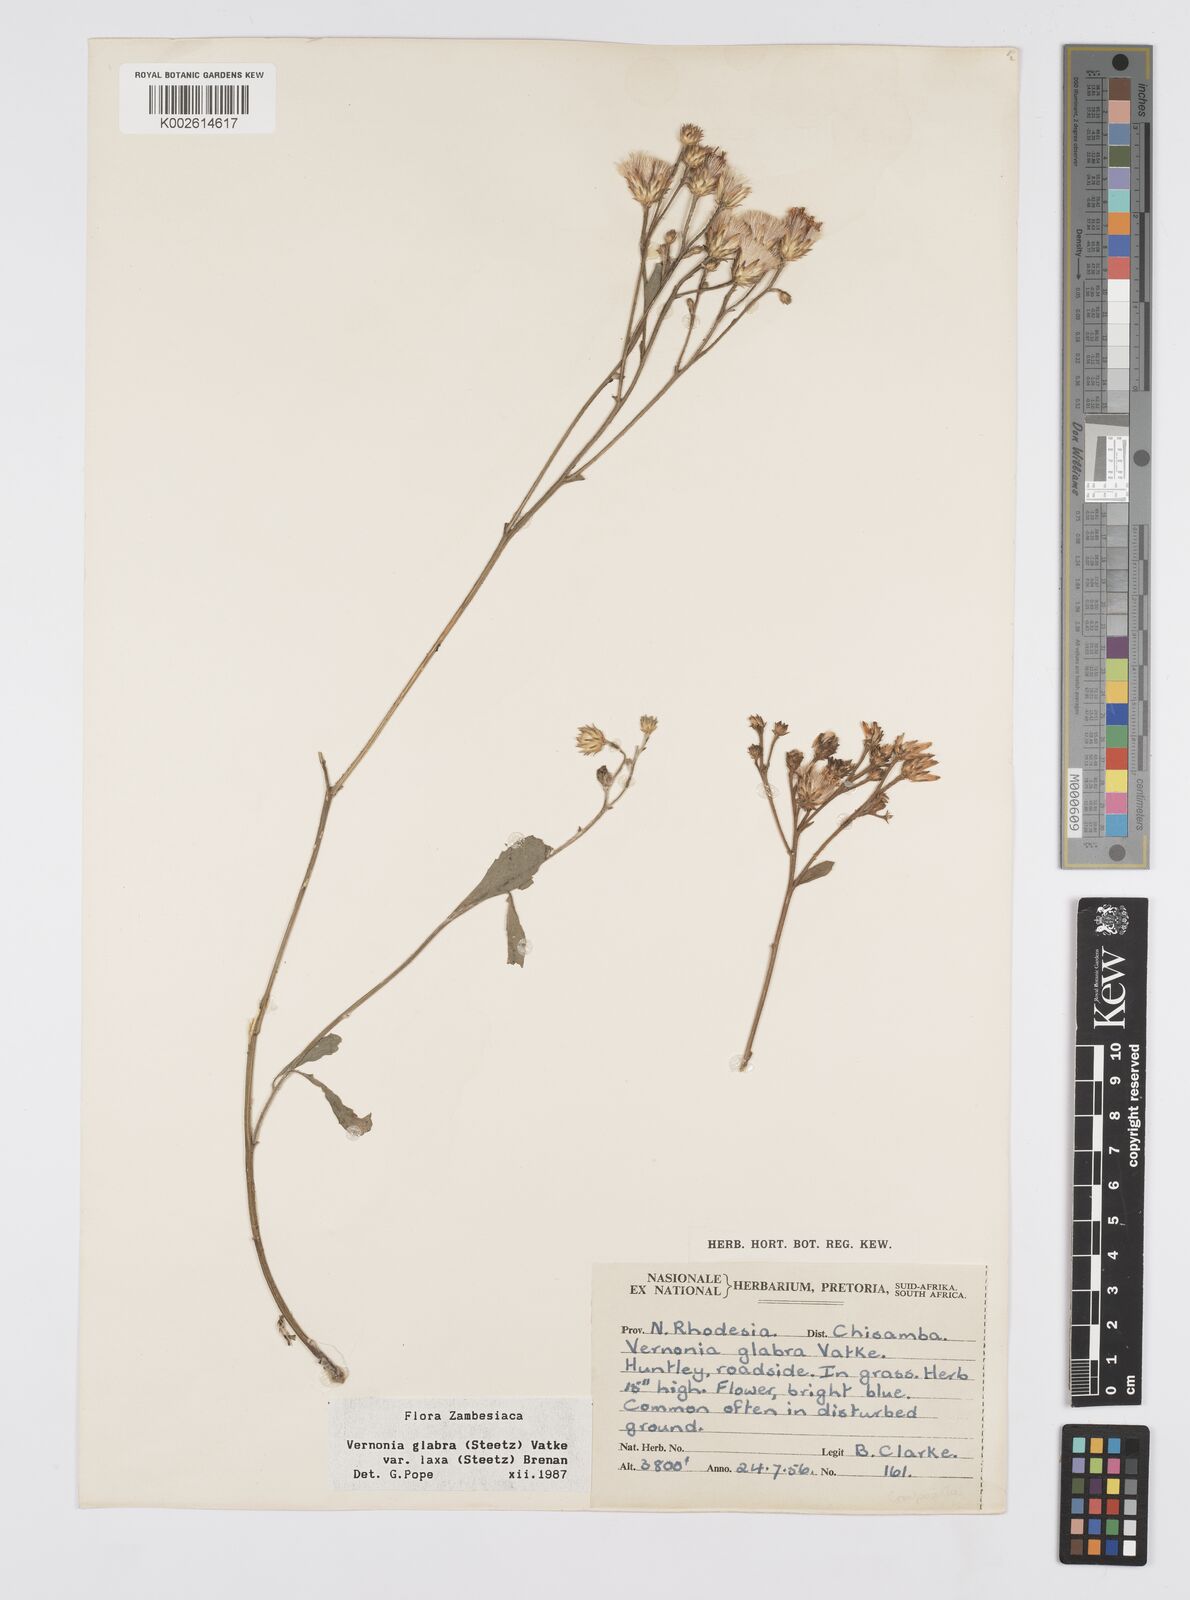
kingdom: Plantae
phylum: Tracheophyta
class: Magnoliopsida
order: Asterales
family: Asteraceae
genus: Linzia
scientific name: Linzia glabra
